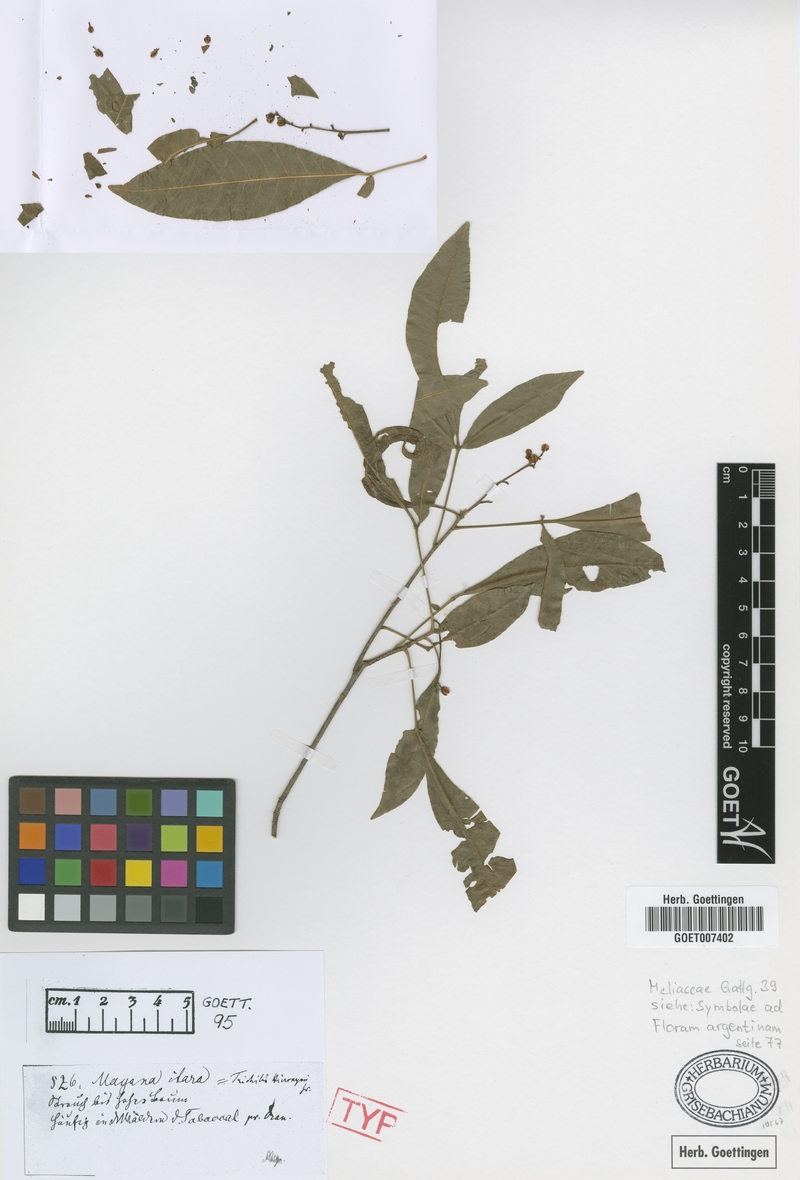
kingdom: Plantae
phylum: Tracheophyta
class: Magnoliopsida
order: Sapindales
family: Meliaceae
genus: Trichilia
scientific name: Trichilia claussenii
